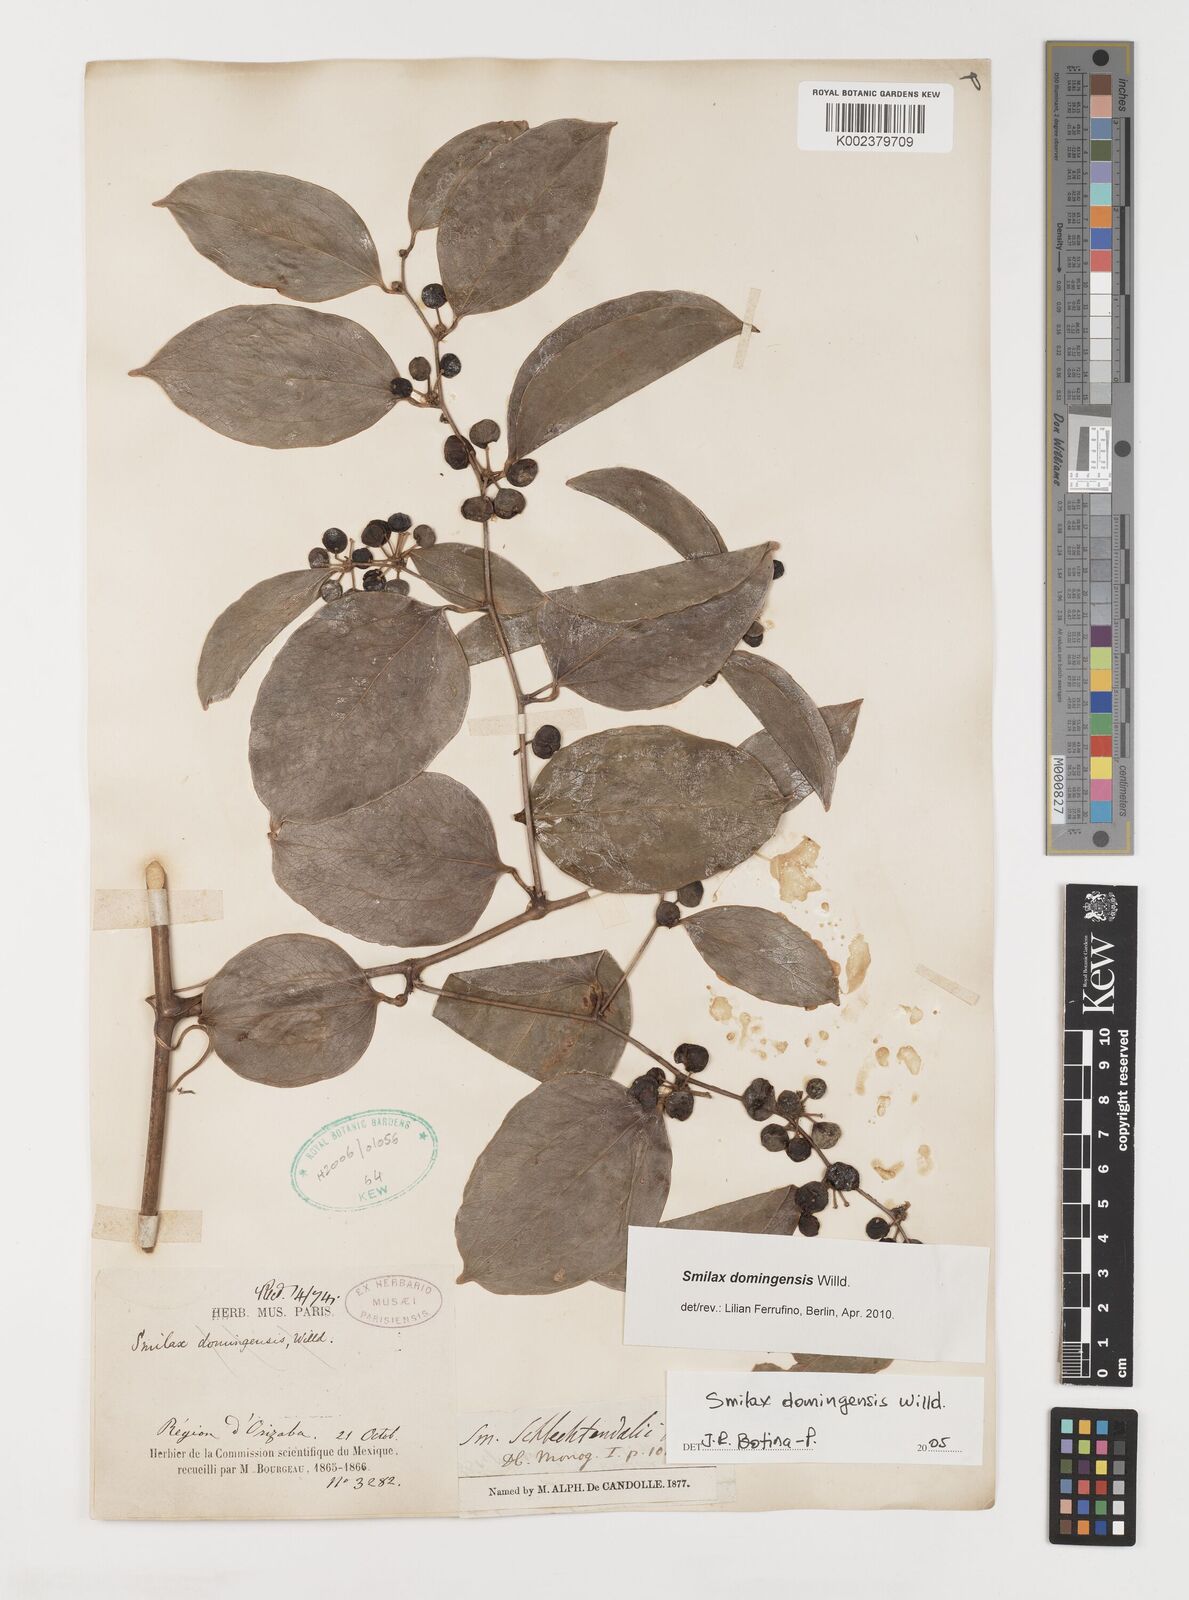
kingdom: Plantae
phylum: Tracheophyta
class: Liliopsida
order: Liliales
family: Smilacaceae
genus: Smilax
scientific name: Smilax domingensis
